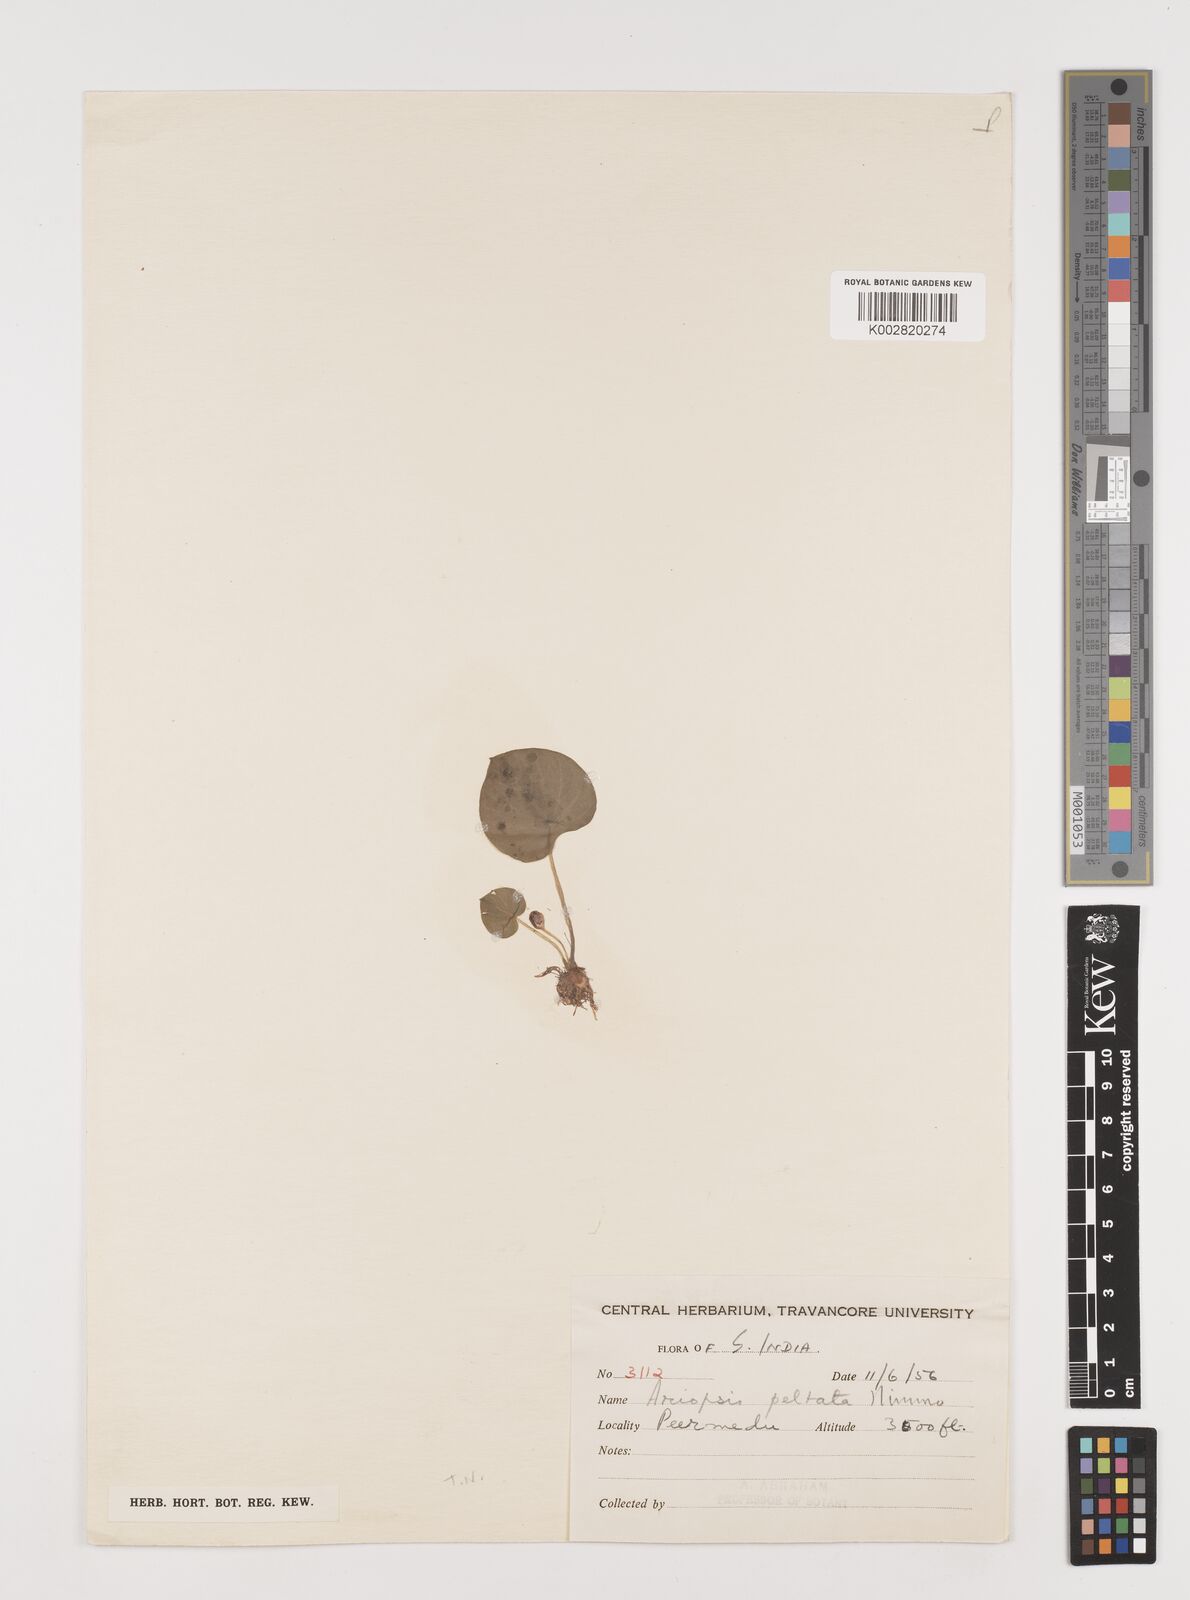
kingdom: Plantae
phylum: Tracheophyta
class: Liliopsida
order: Alismatales
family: Araceae
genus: Ariopsis
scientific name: Ariopsis peltata
